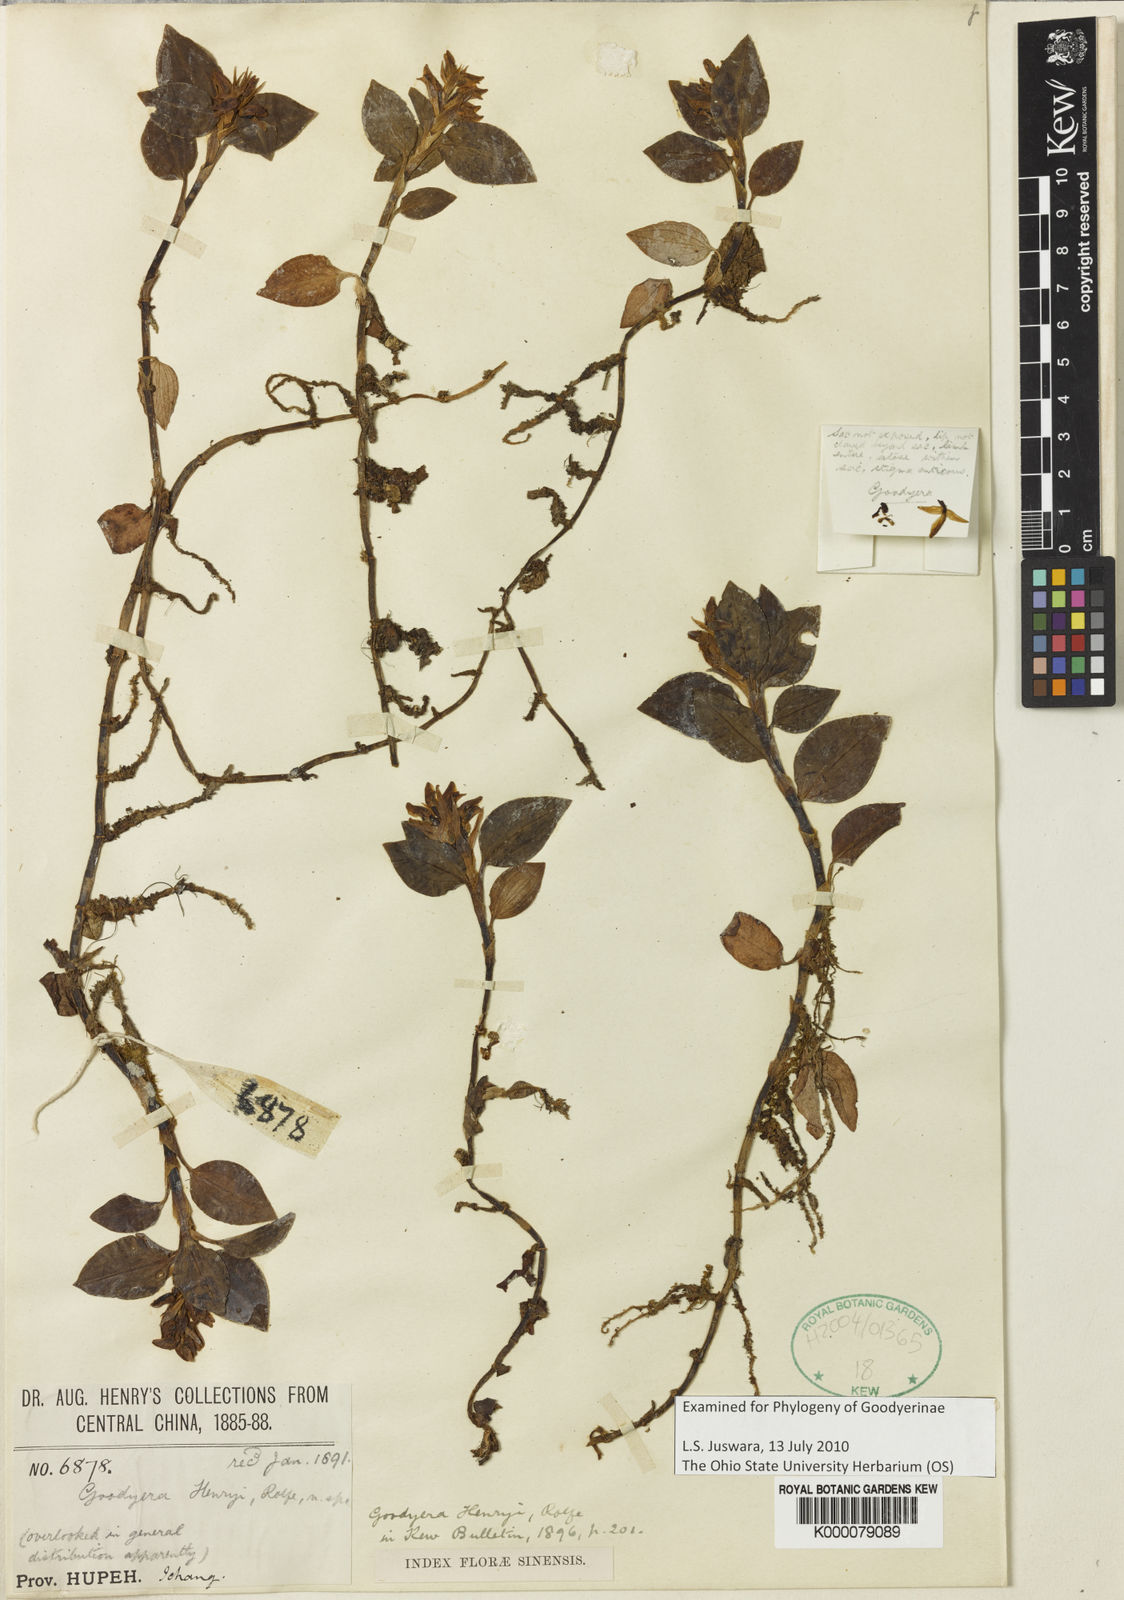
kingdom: Plantae
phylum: Tracheophyta
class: Liliopsida
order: Asparagales
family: Orchidaceae
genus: Goodyera
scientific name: Goodyera henryi
